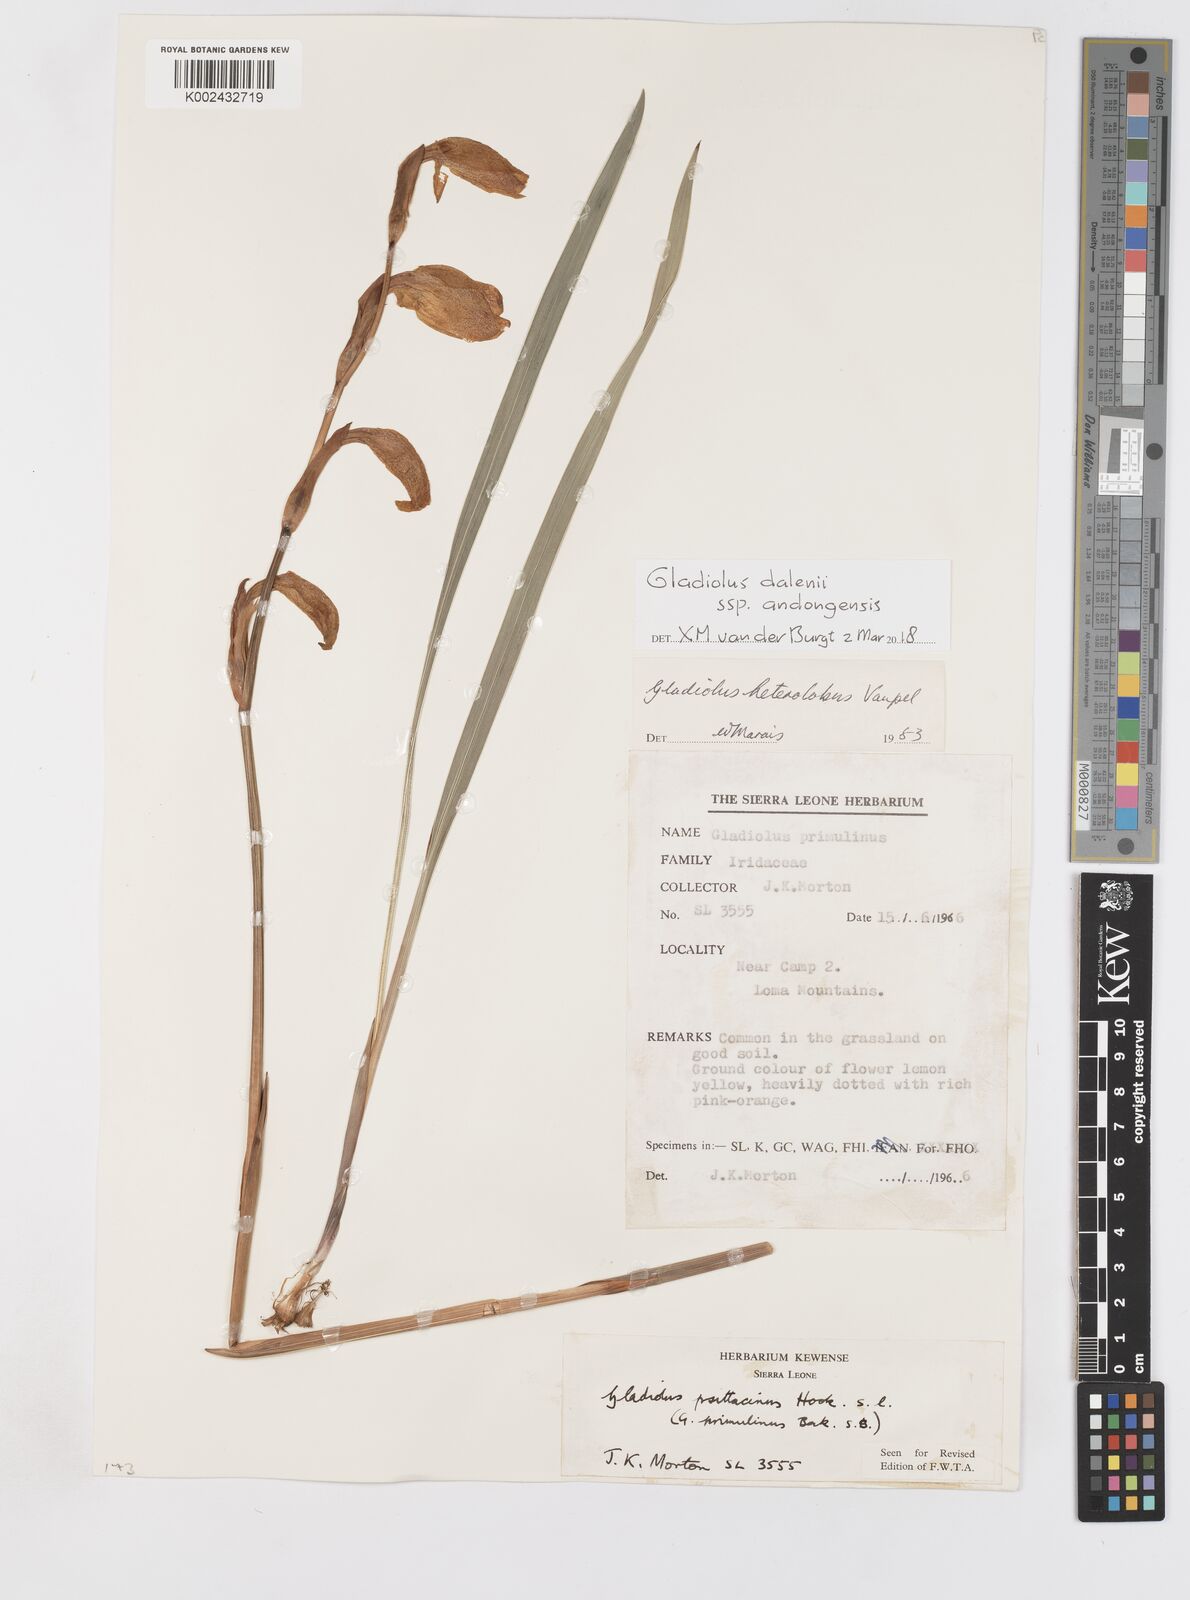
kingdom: Plantae
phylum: Tracheophyta
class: Liliopsida
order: Asparagales
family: Iridaceae
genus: Gladiolus
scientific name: Gladiolus dalenii
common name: Cornflag
